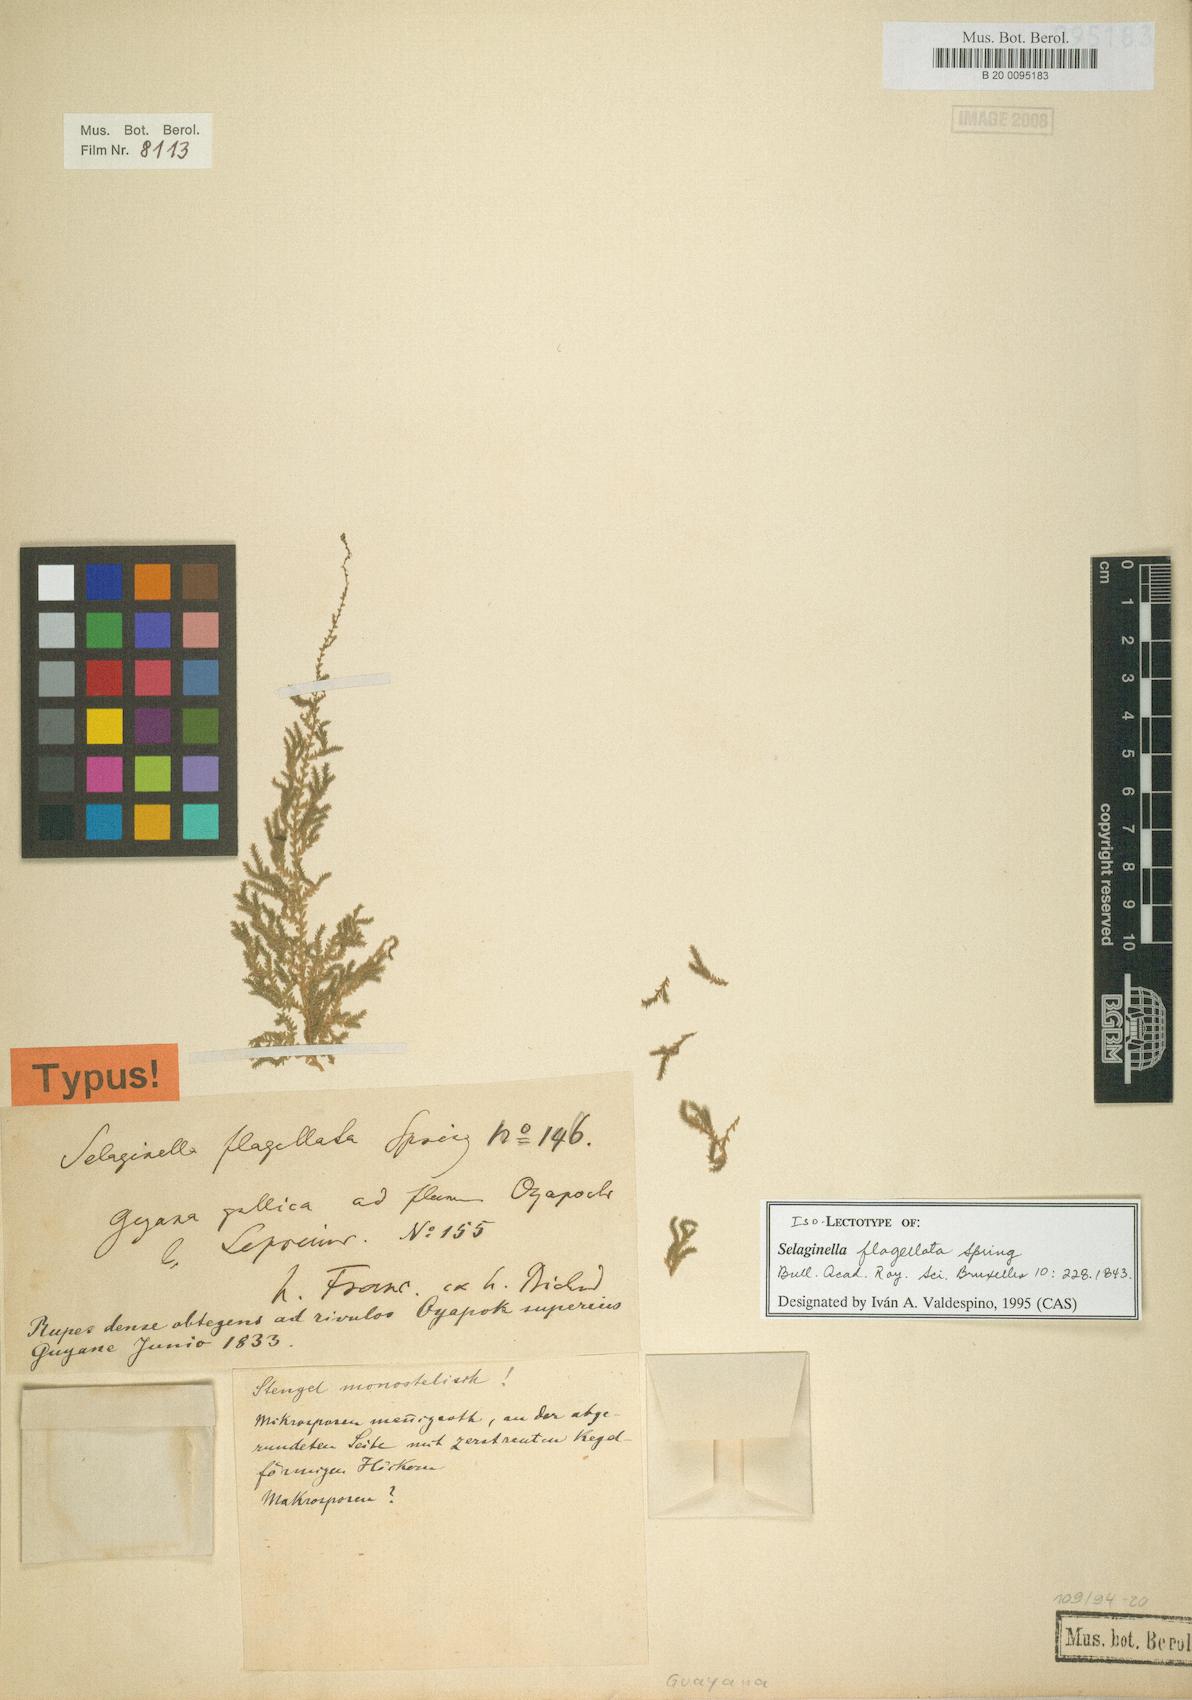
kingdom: Plantae
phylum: Tracheophyta
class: Lycopodiopsida
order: Selaginellales
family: Selaginellaceae
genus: Selaginella
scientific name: Selaginella flagellata
